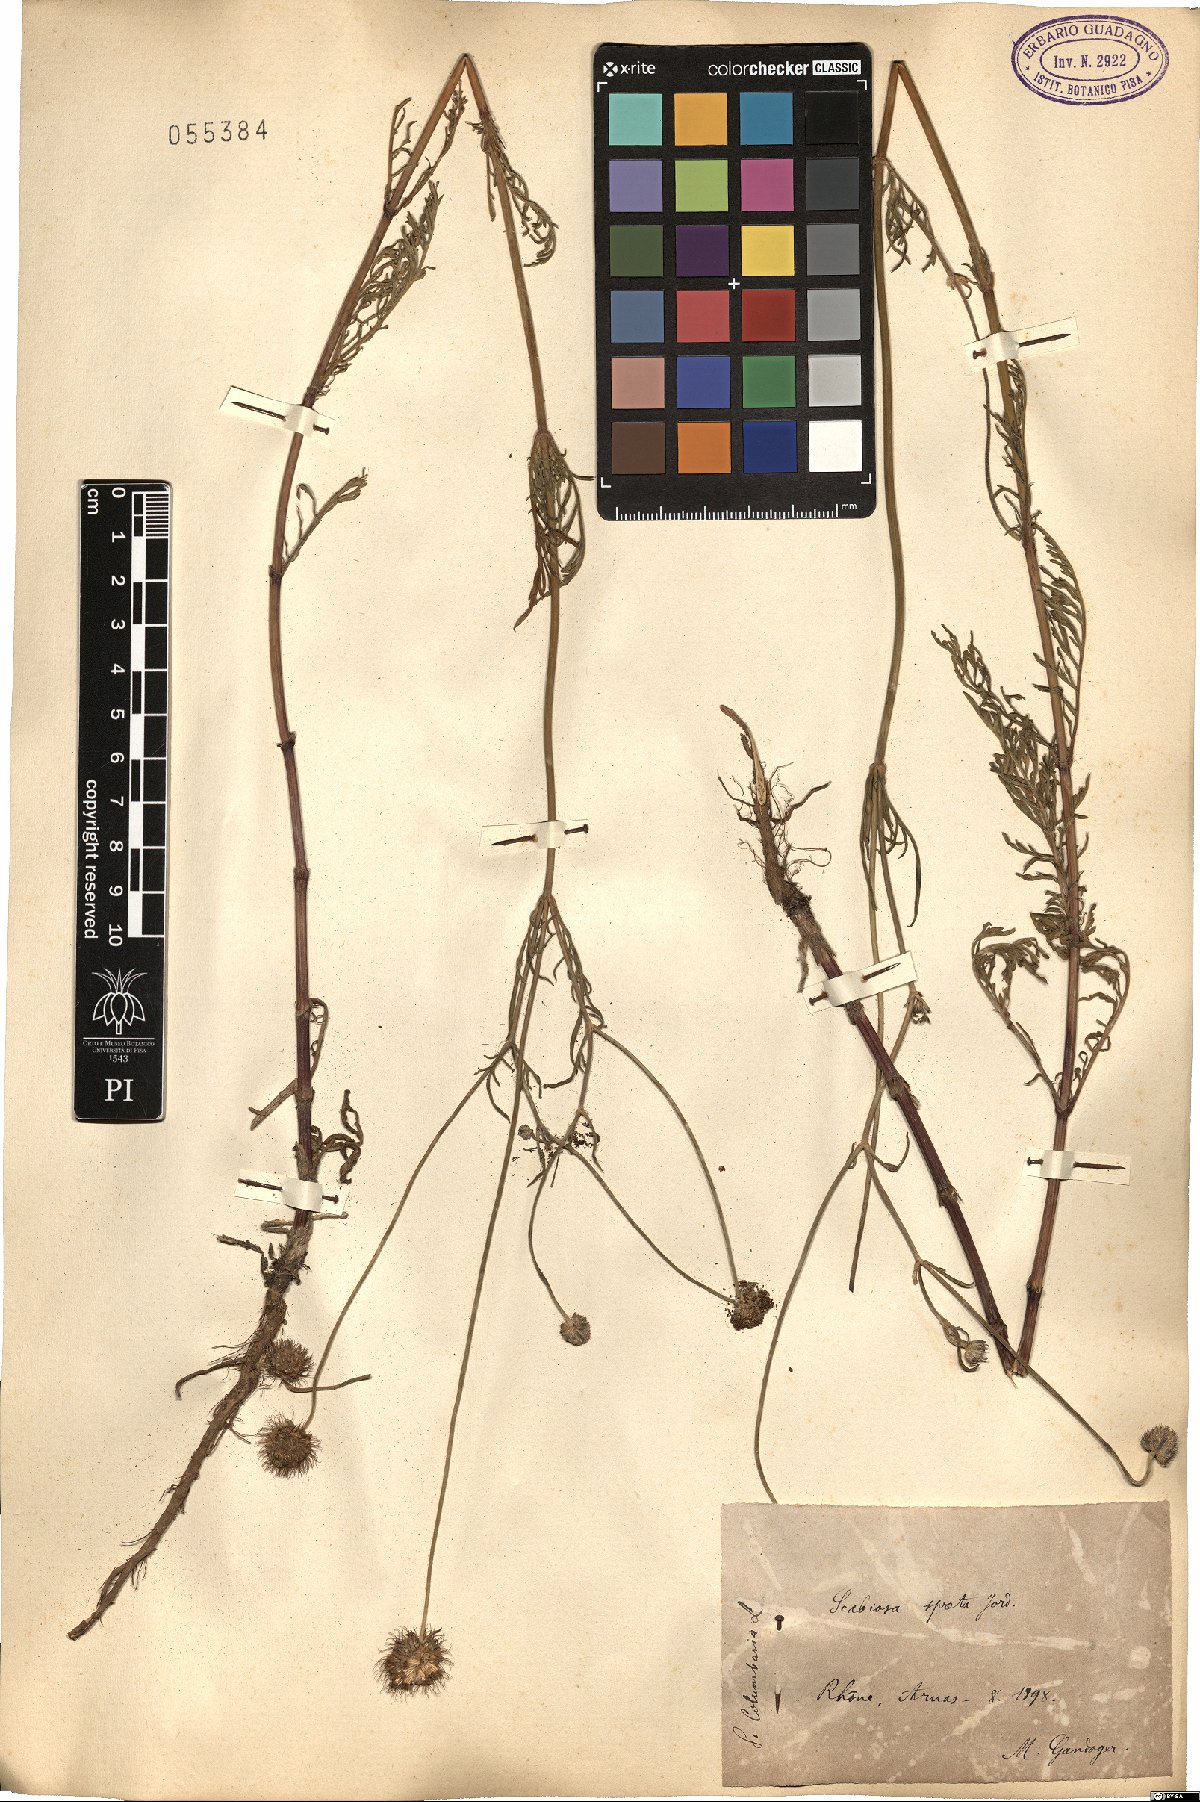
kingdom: Plantae
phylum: Tracheophyta
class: Magnoliopsida
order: Dipsacales
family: Caprifoliaceae
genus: Scabiosa
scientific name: Scabiosa columbaria
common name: Small scabious
